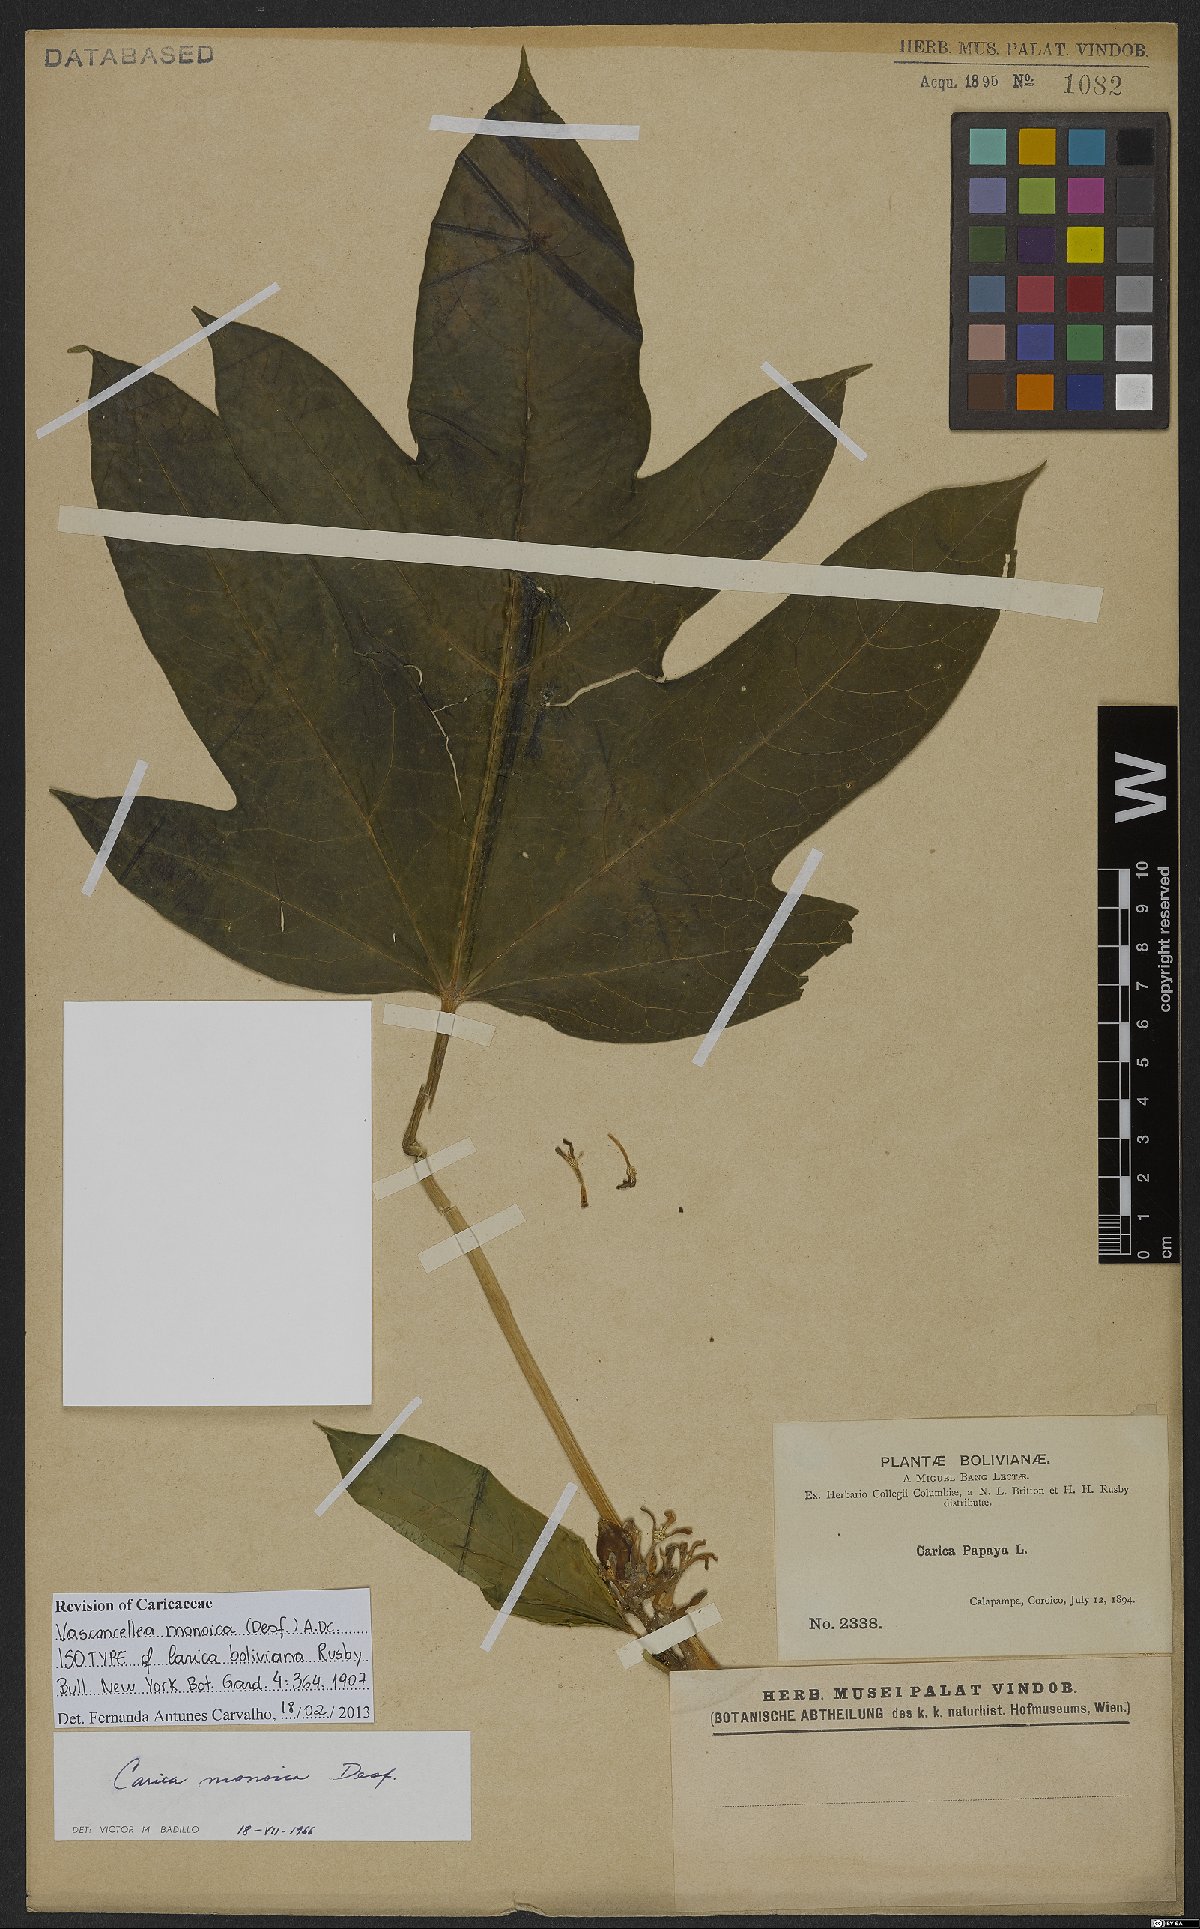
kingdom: Plantae
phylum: Tracheophyta
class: Magnoliopsida
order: Brassicales
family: Caricaceae
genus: Vasconcellea
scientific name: Vasconcellea monoica
